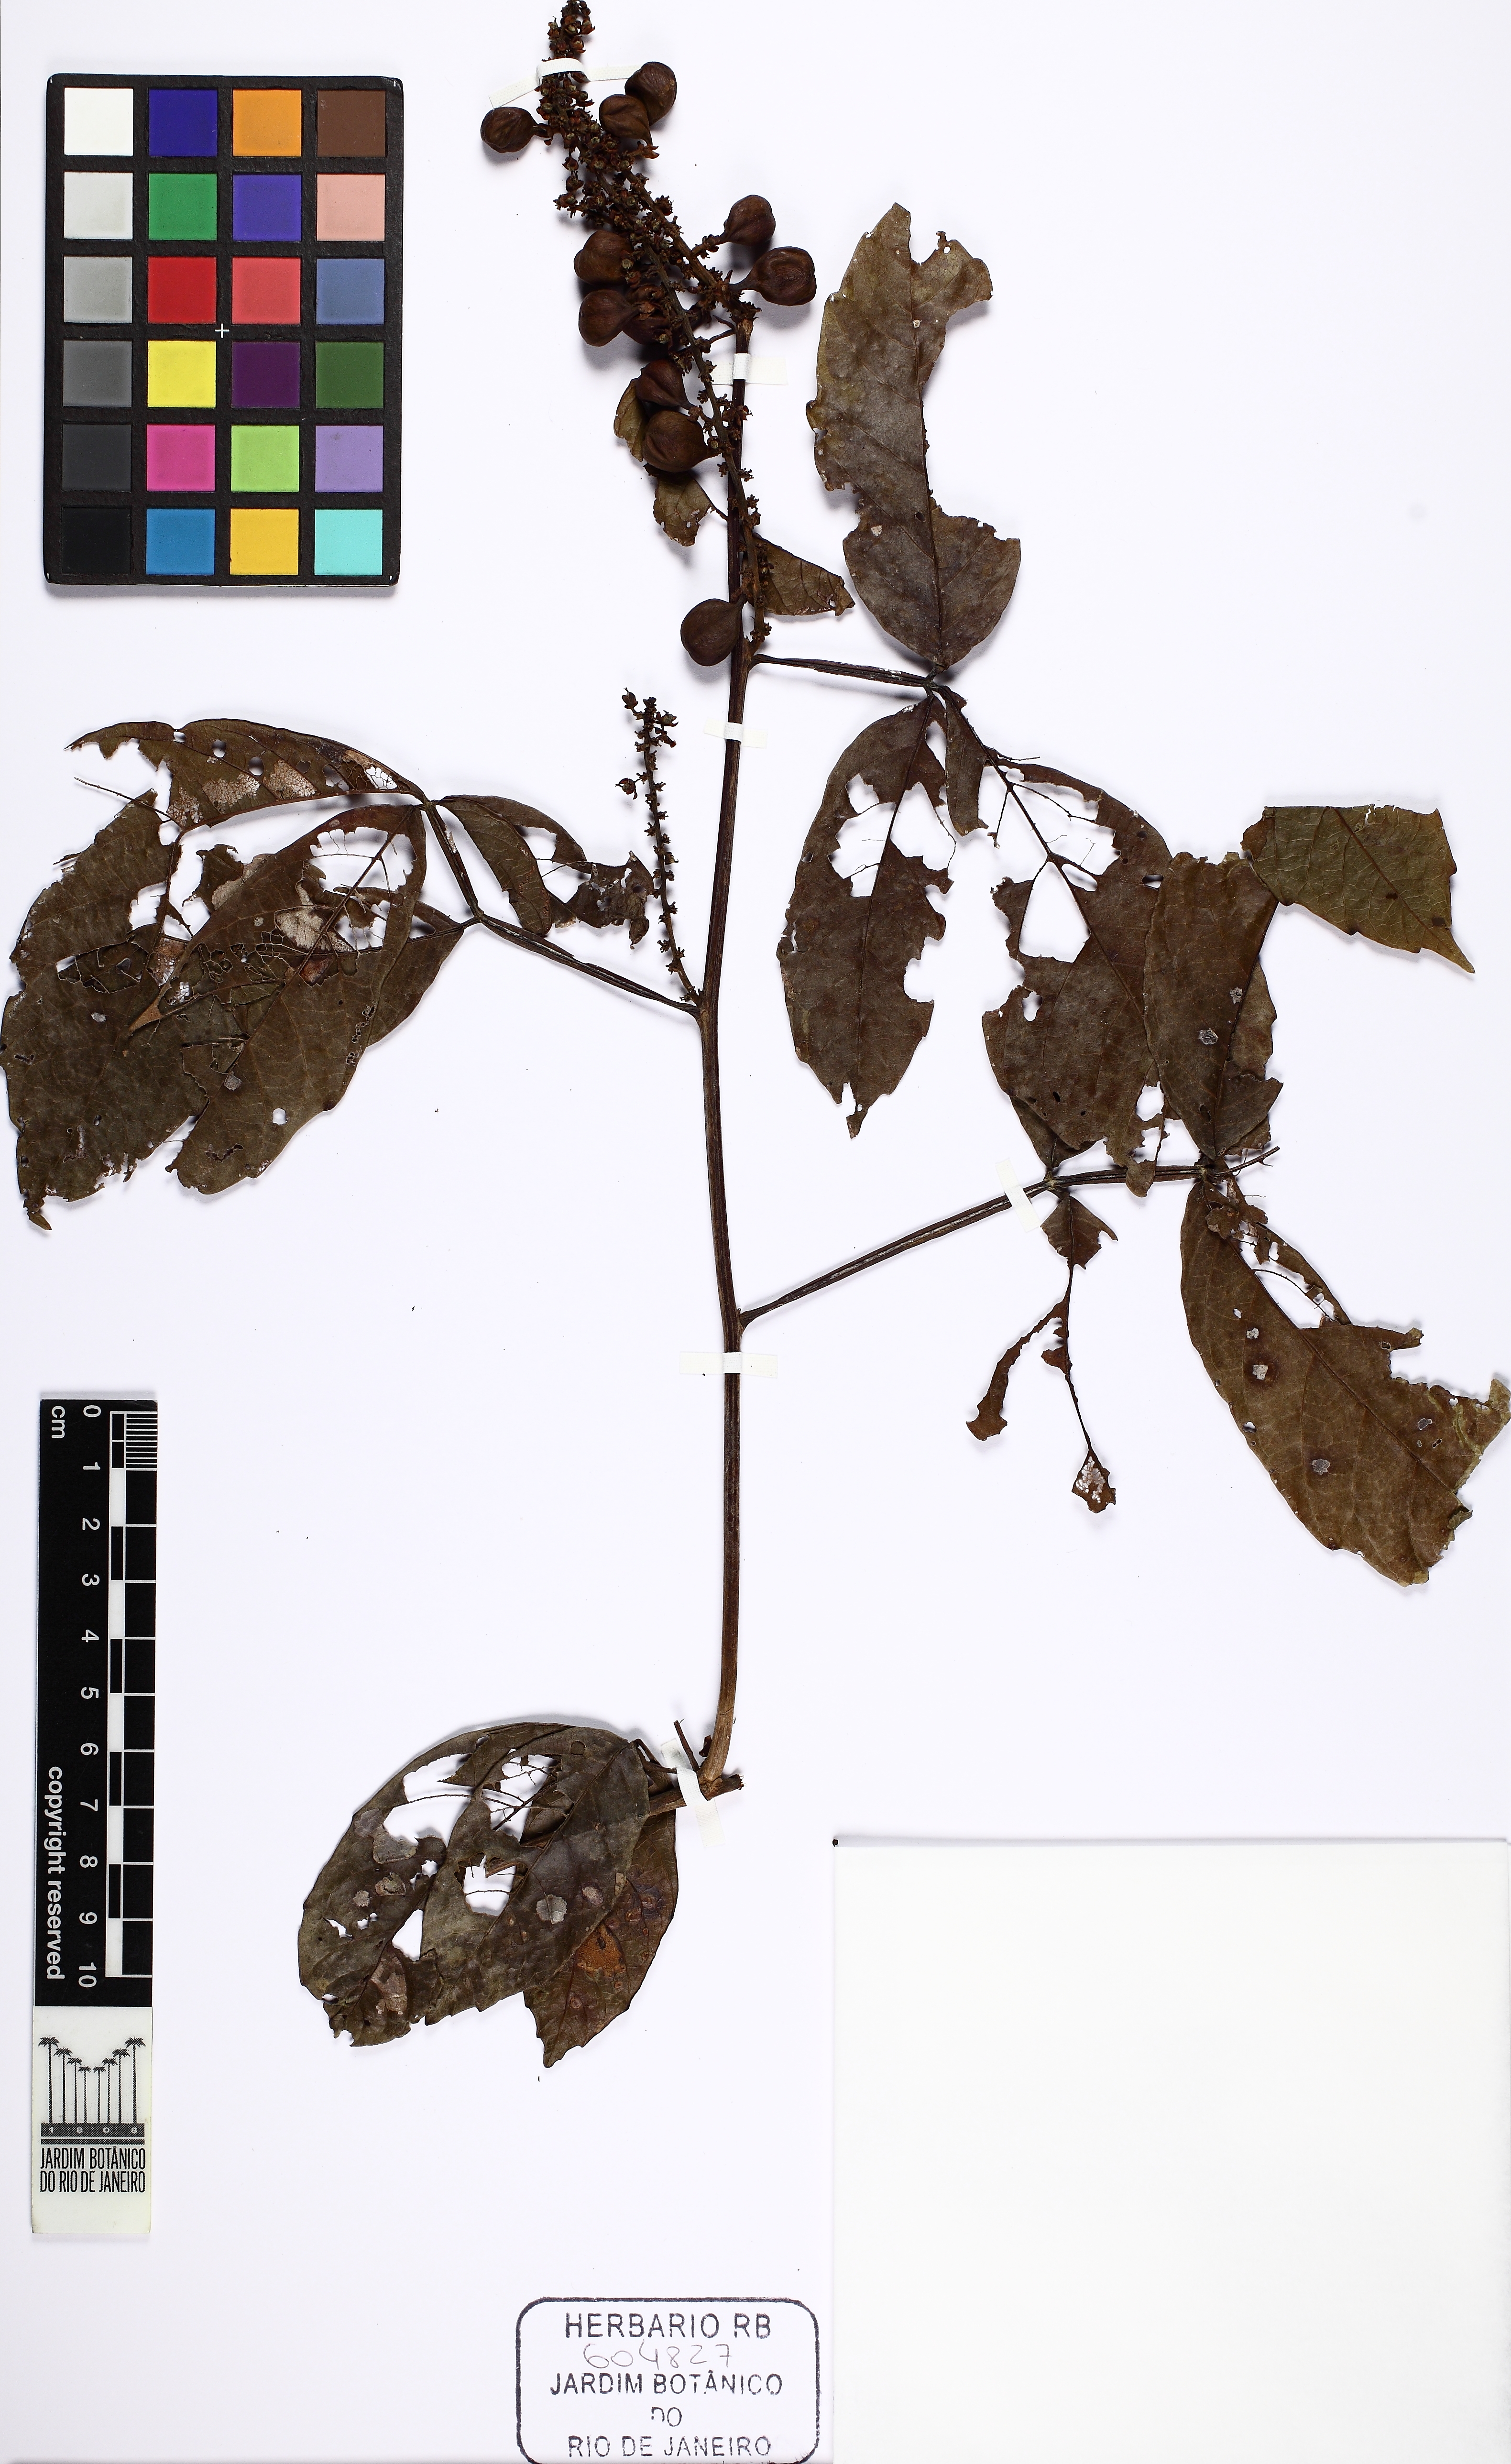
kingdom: Plantae
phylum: Tracheophyta
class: Magnoliopsida
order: Sapindales
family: Sapindaceae
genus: Paullinia
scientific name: Paullinia clavigera
